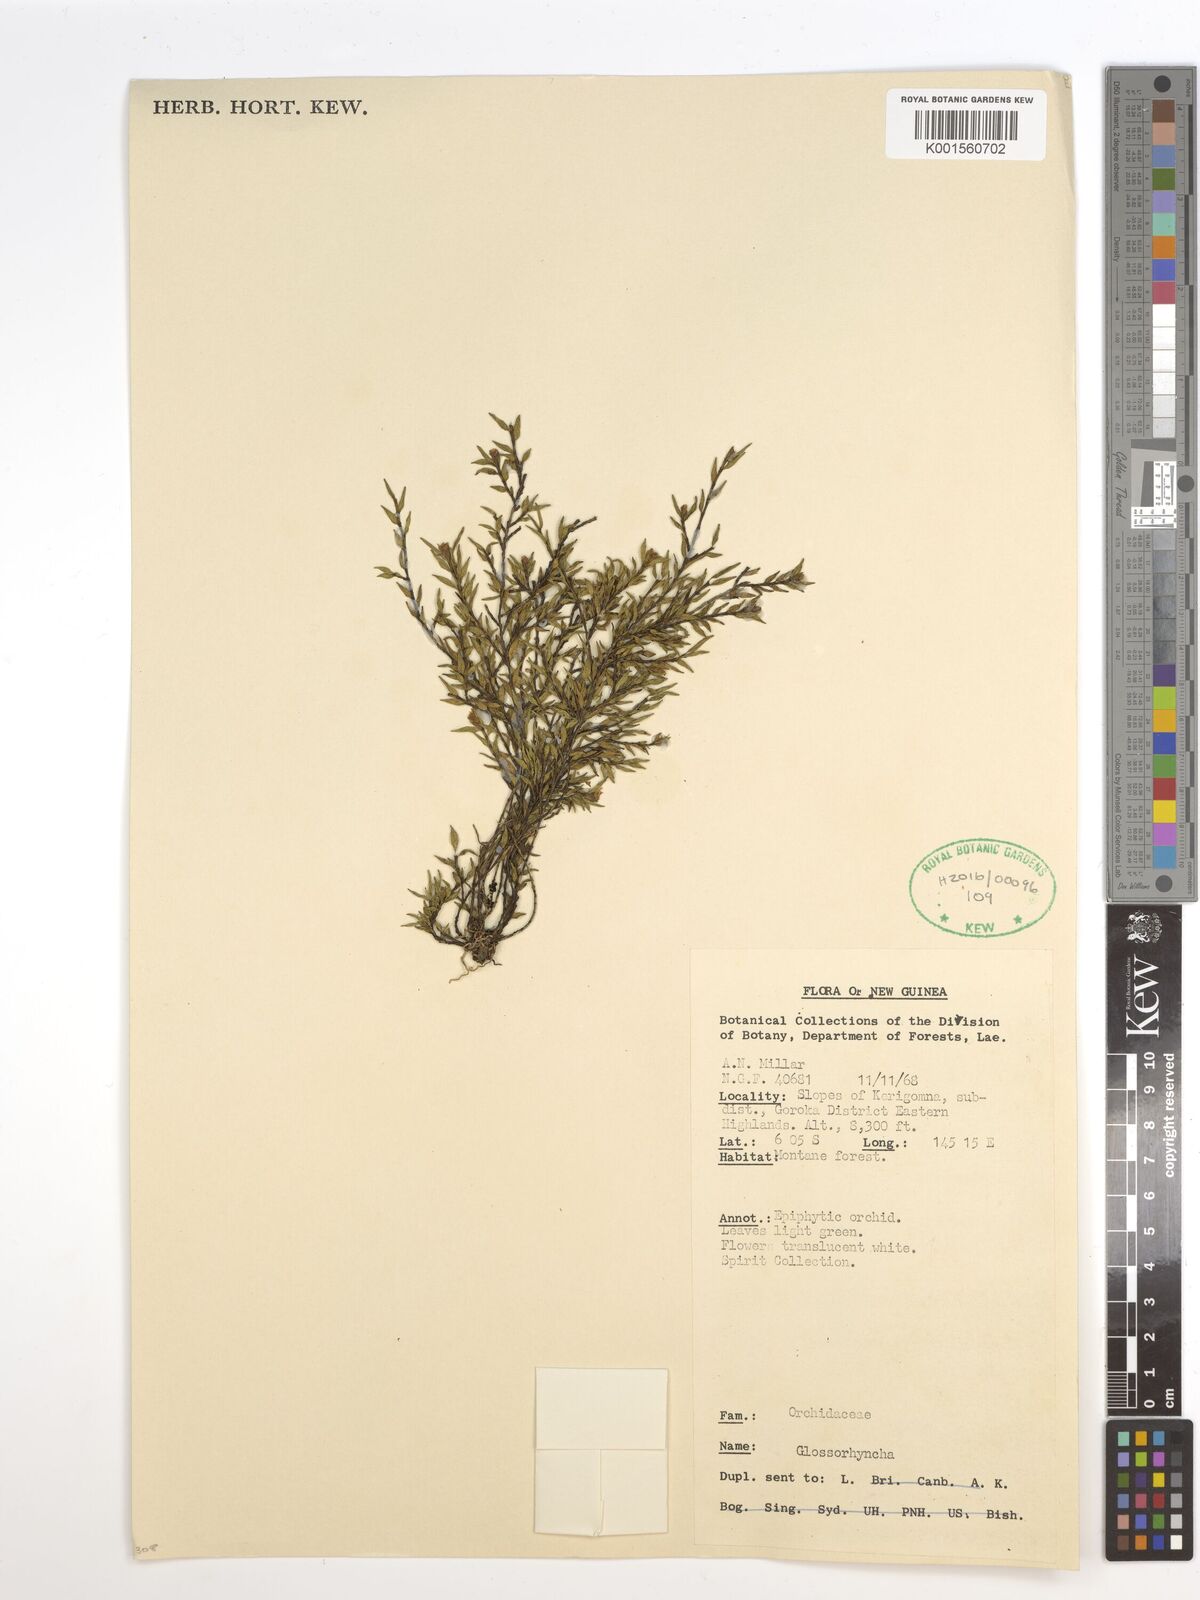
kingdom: Plantae
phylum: Tracheophyta
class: Liliopsida
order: Asparagales
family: Orchidaceae
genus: Glomera
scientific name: Glomera
